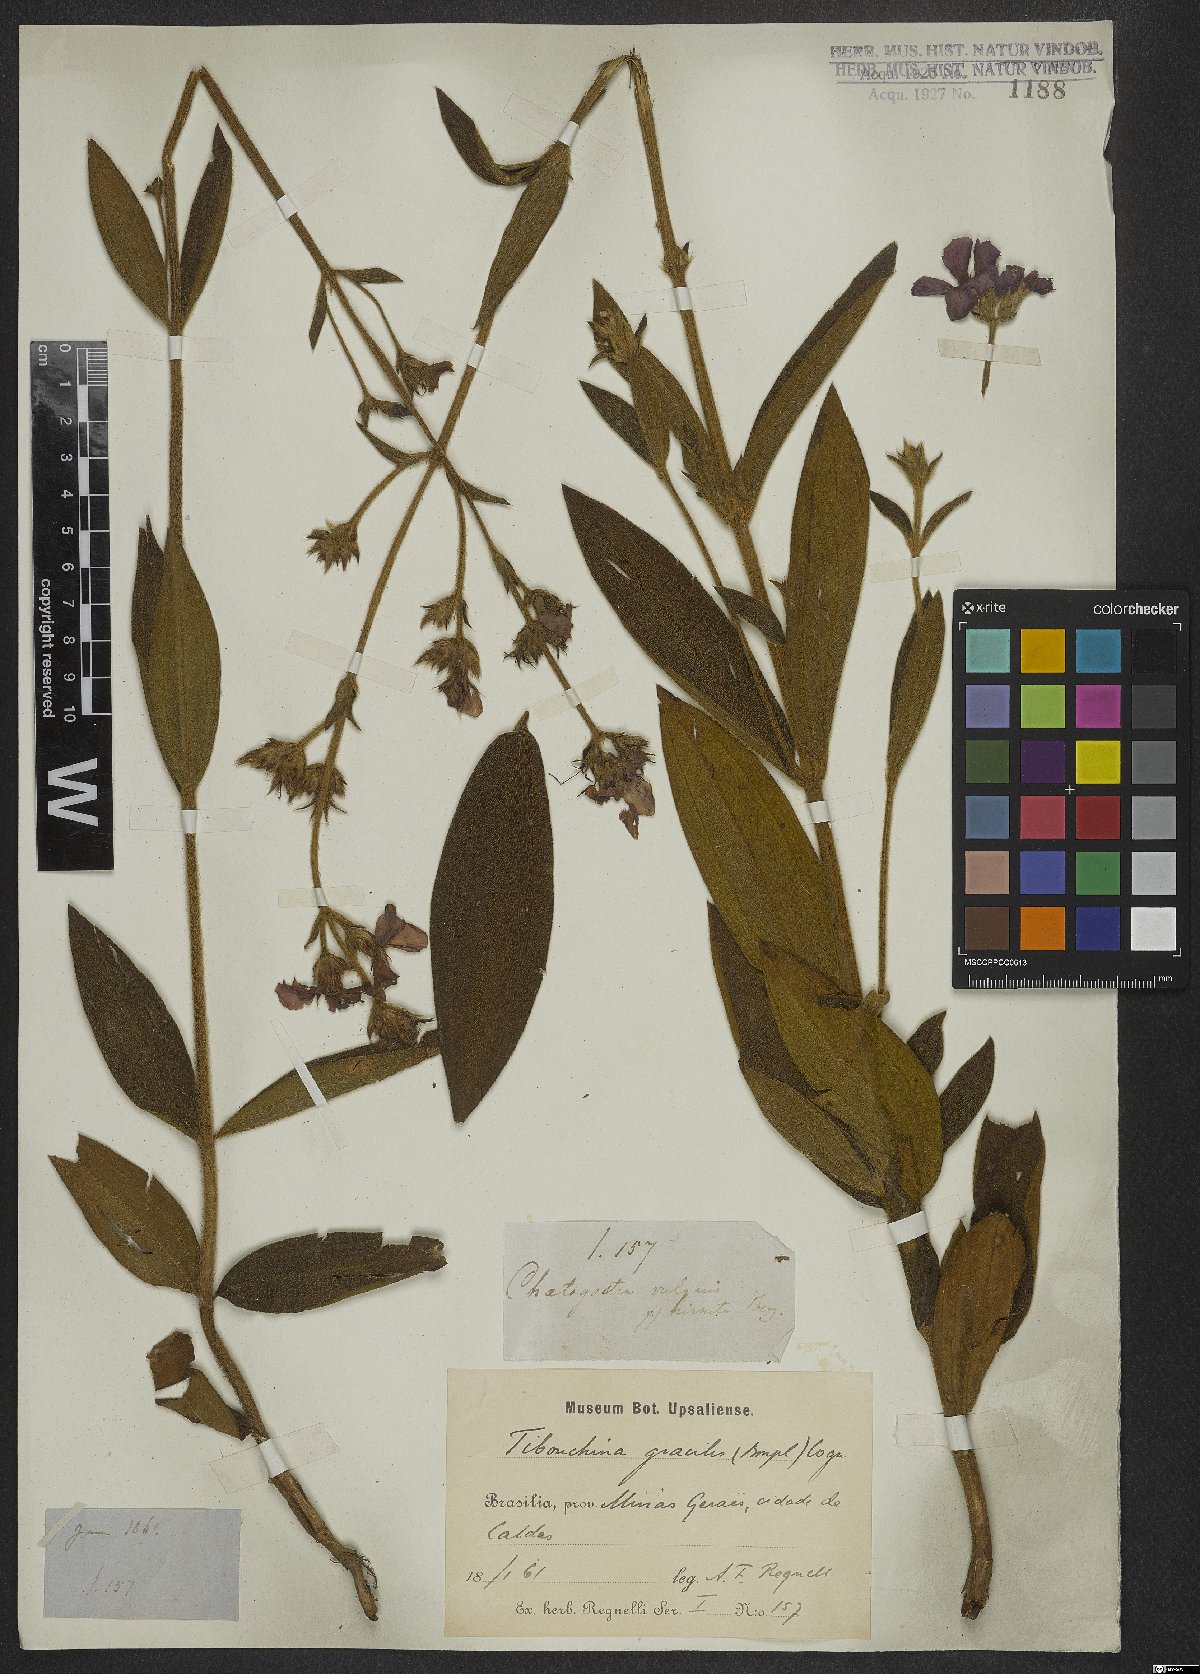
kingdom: Plantae
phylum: Tracheophyta
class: Magnoliopsida
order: Myrtales
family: Melastomataceae
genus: Chaetogastra
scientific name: Chaetogastra gracilis
